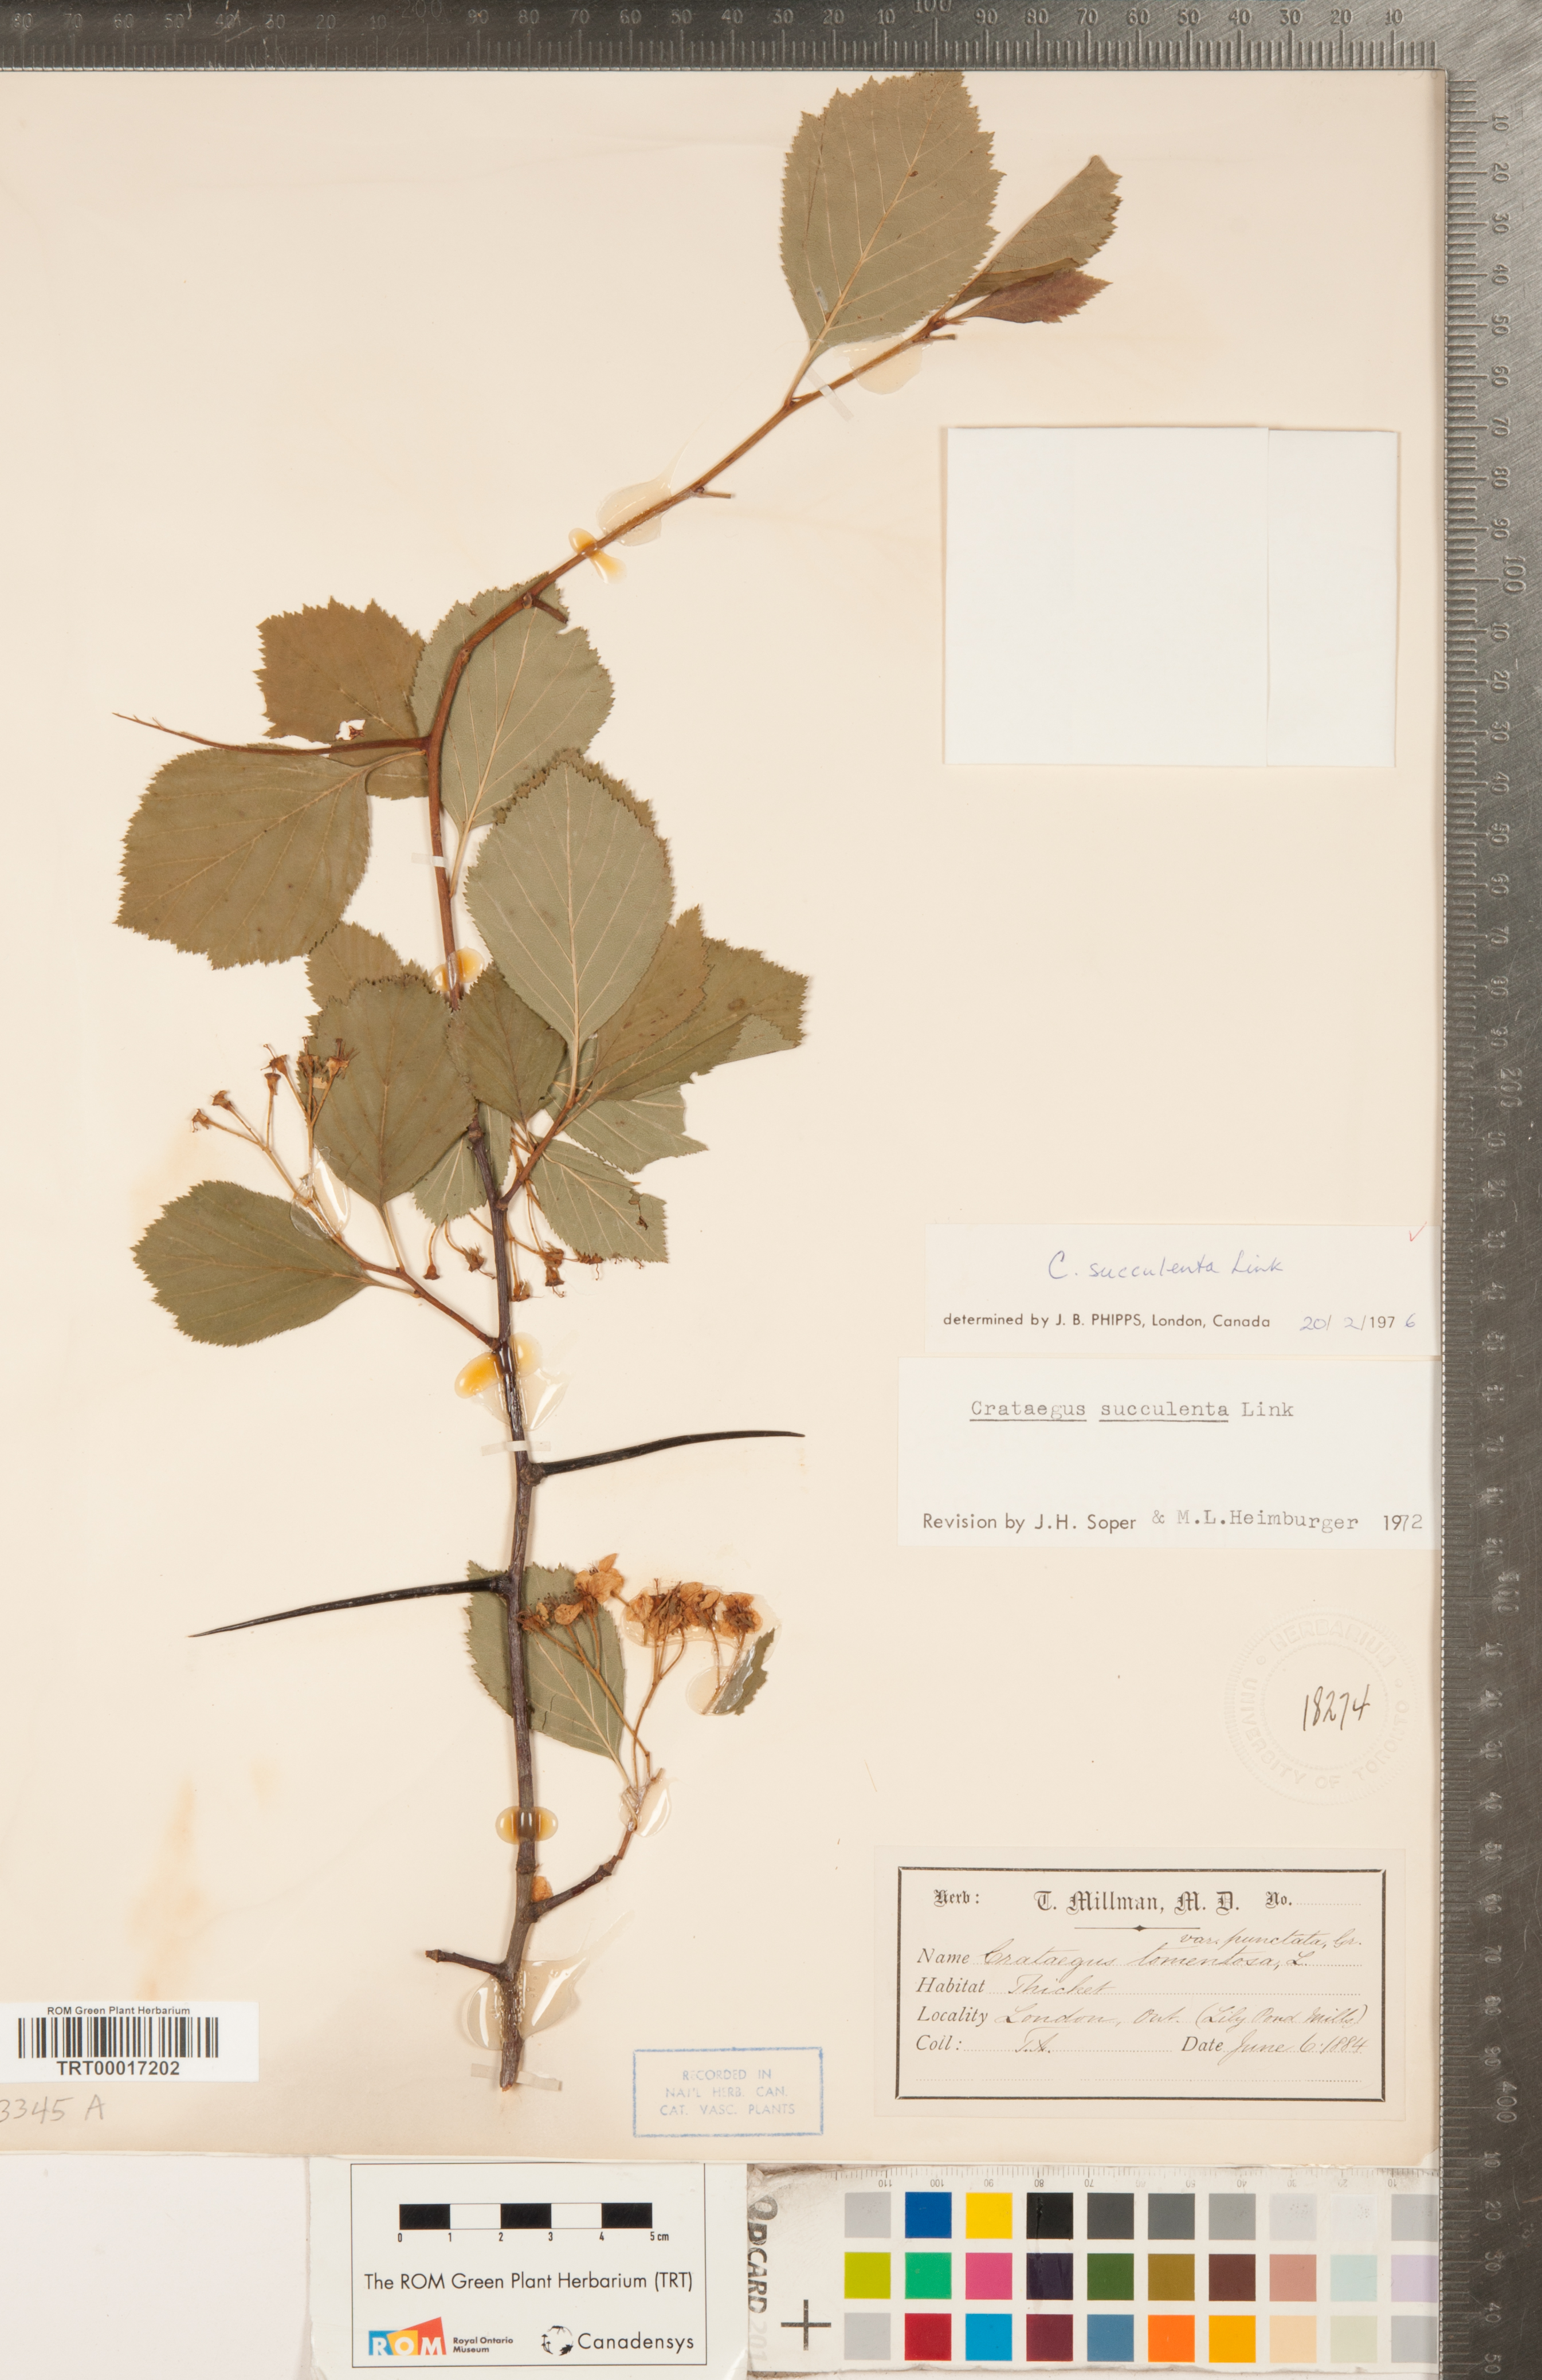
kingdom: Plantae
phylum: Tracheophyta
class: Magnoliopsida
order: Rosales
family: Rosaceae
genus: Crataegus
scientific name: Crataegus succulenta
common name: Fleshy hawthorn
